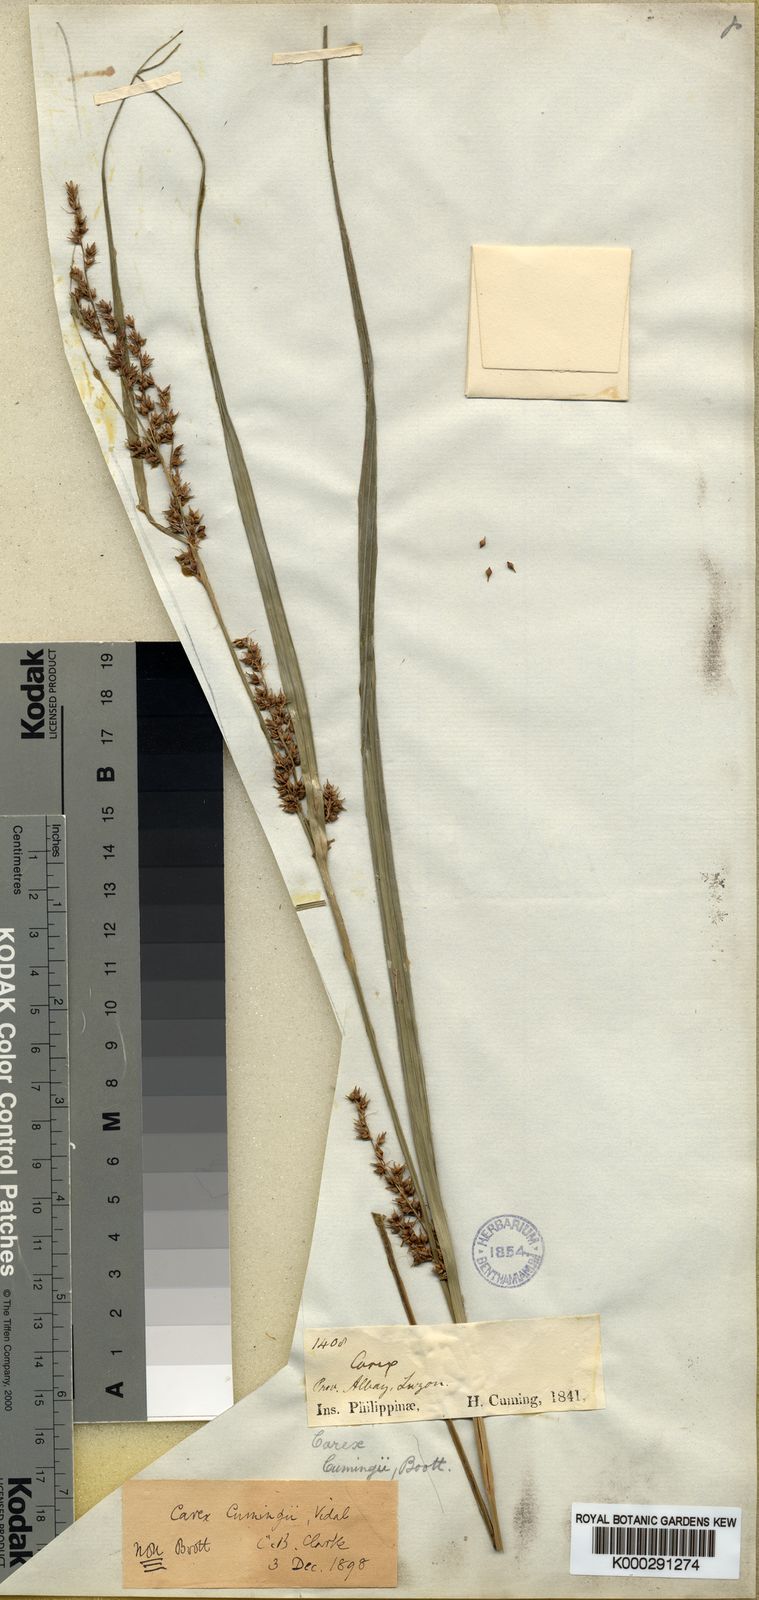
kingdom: Plantae
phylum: Tracheophyta
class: Liliopsida
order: Poales
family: Cyperaceae
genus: Carex
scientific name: Carex
